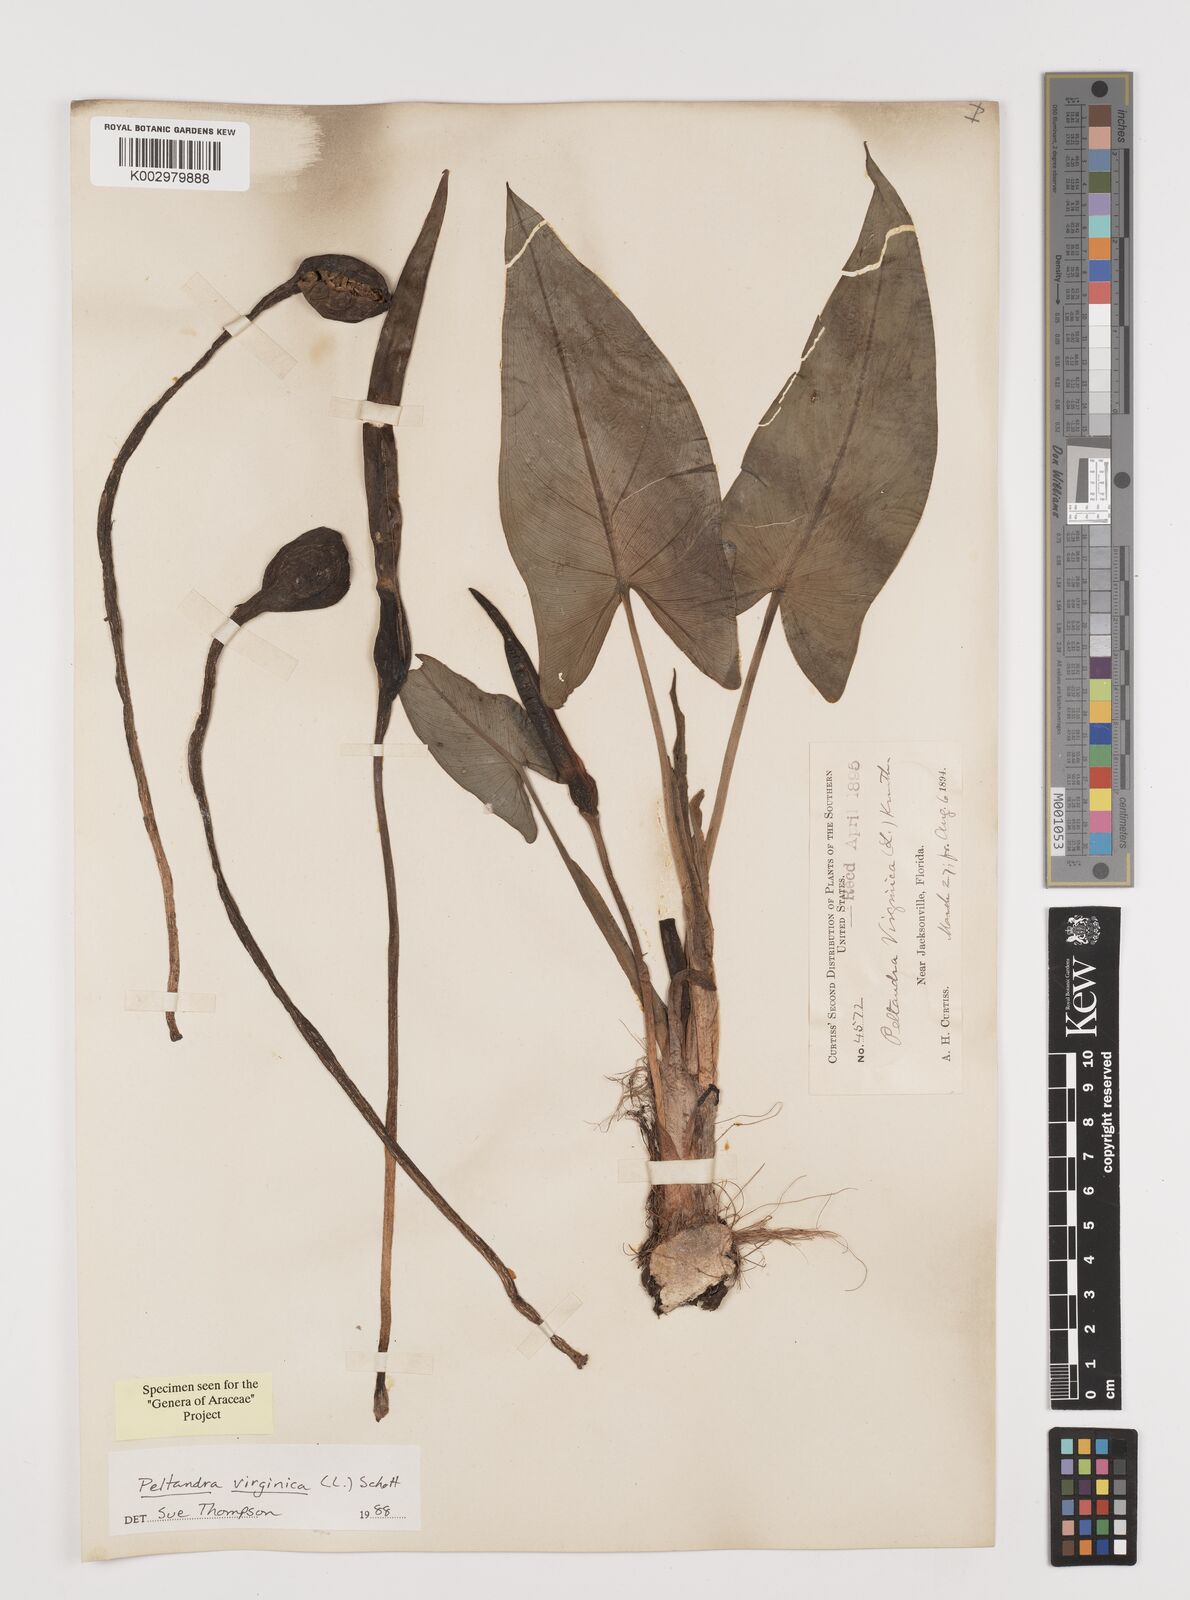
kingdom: Plantae
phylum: Tracheophyta
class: Liliopsida
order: Alismatales
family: Araceae
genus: Peltandra
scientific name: Peltandra virginica
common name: Arrow arum
